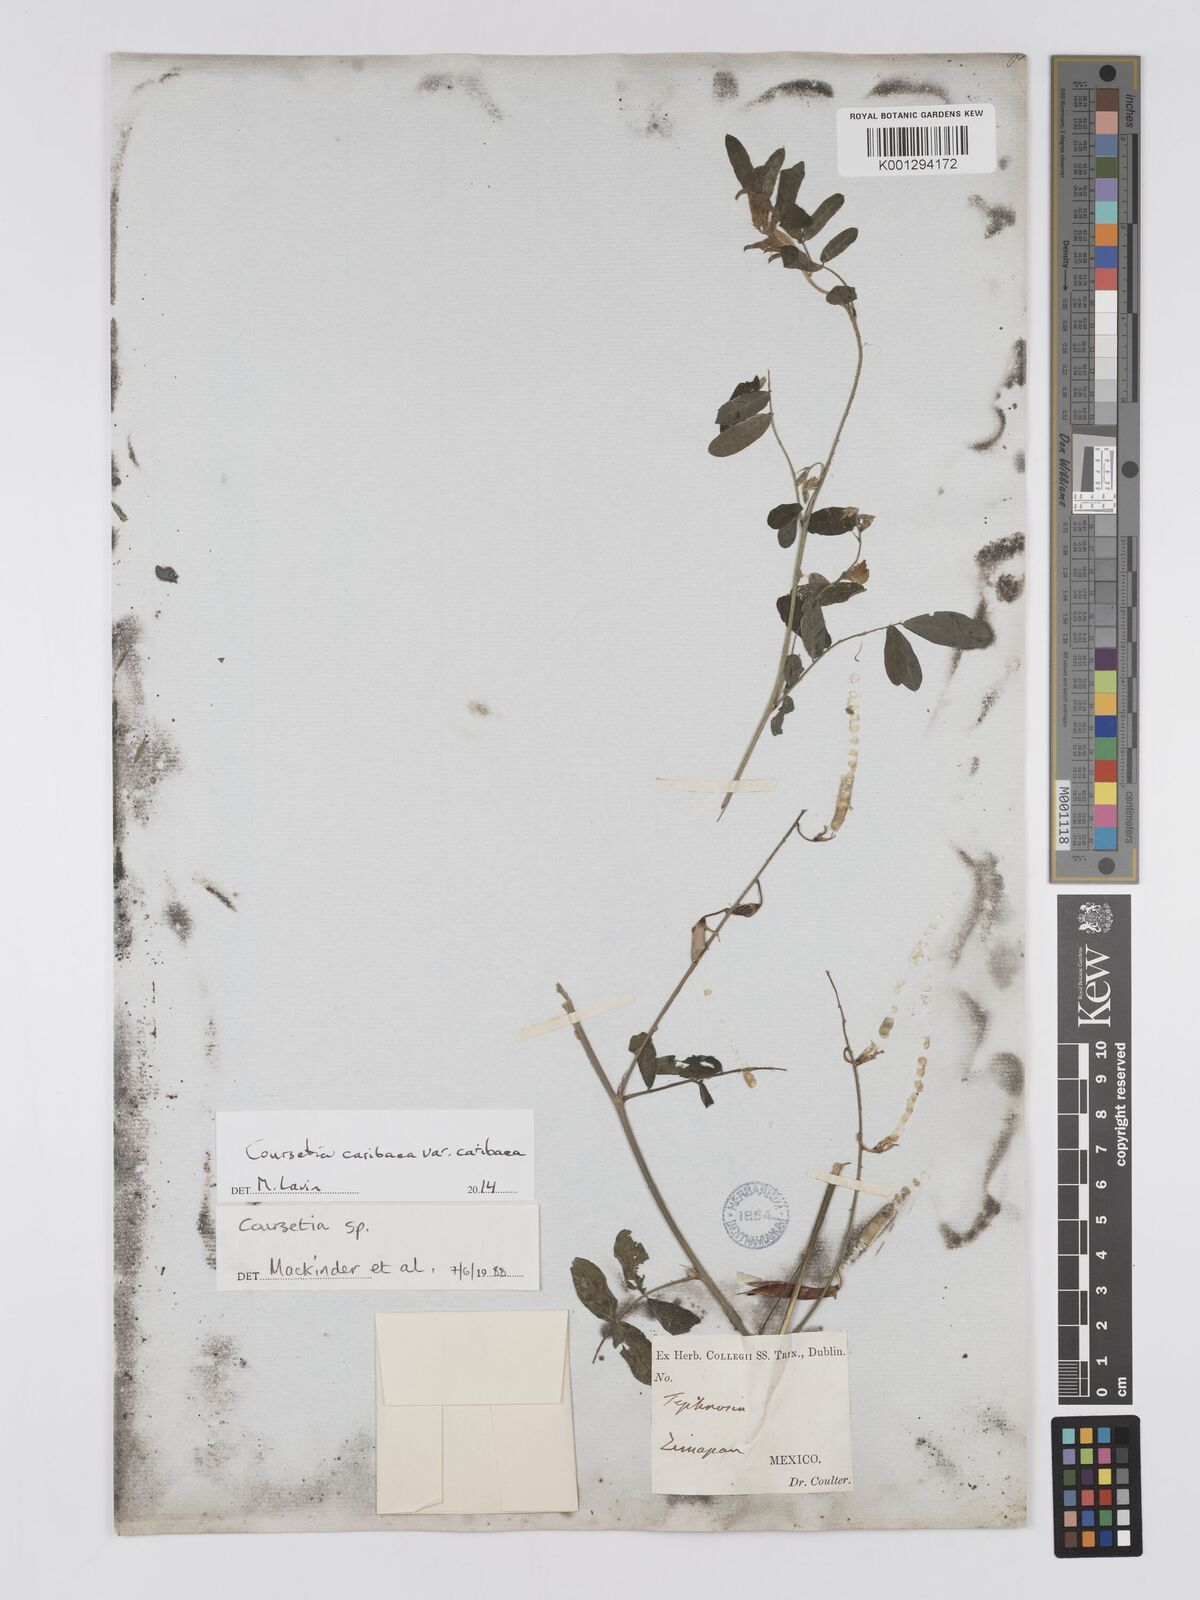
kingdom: Plantae
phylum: Tracheophyta
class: Magnoliopsida
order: Fabales
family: Fabaceae
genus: Coursetia
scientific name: Coursetia
